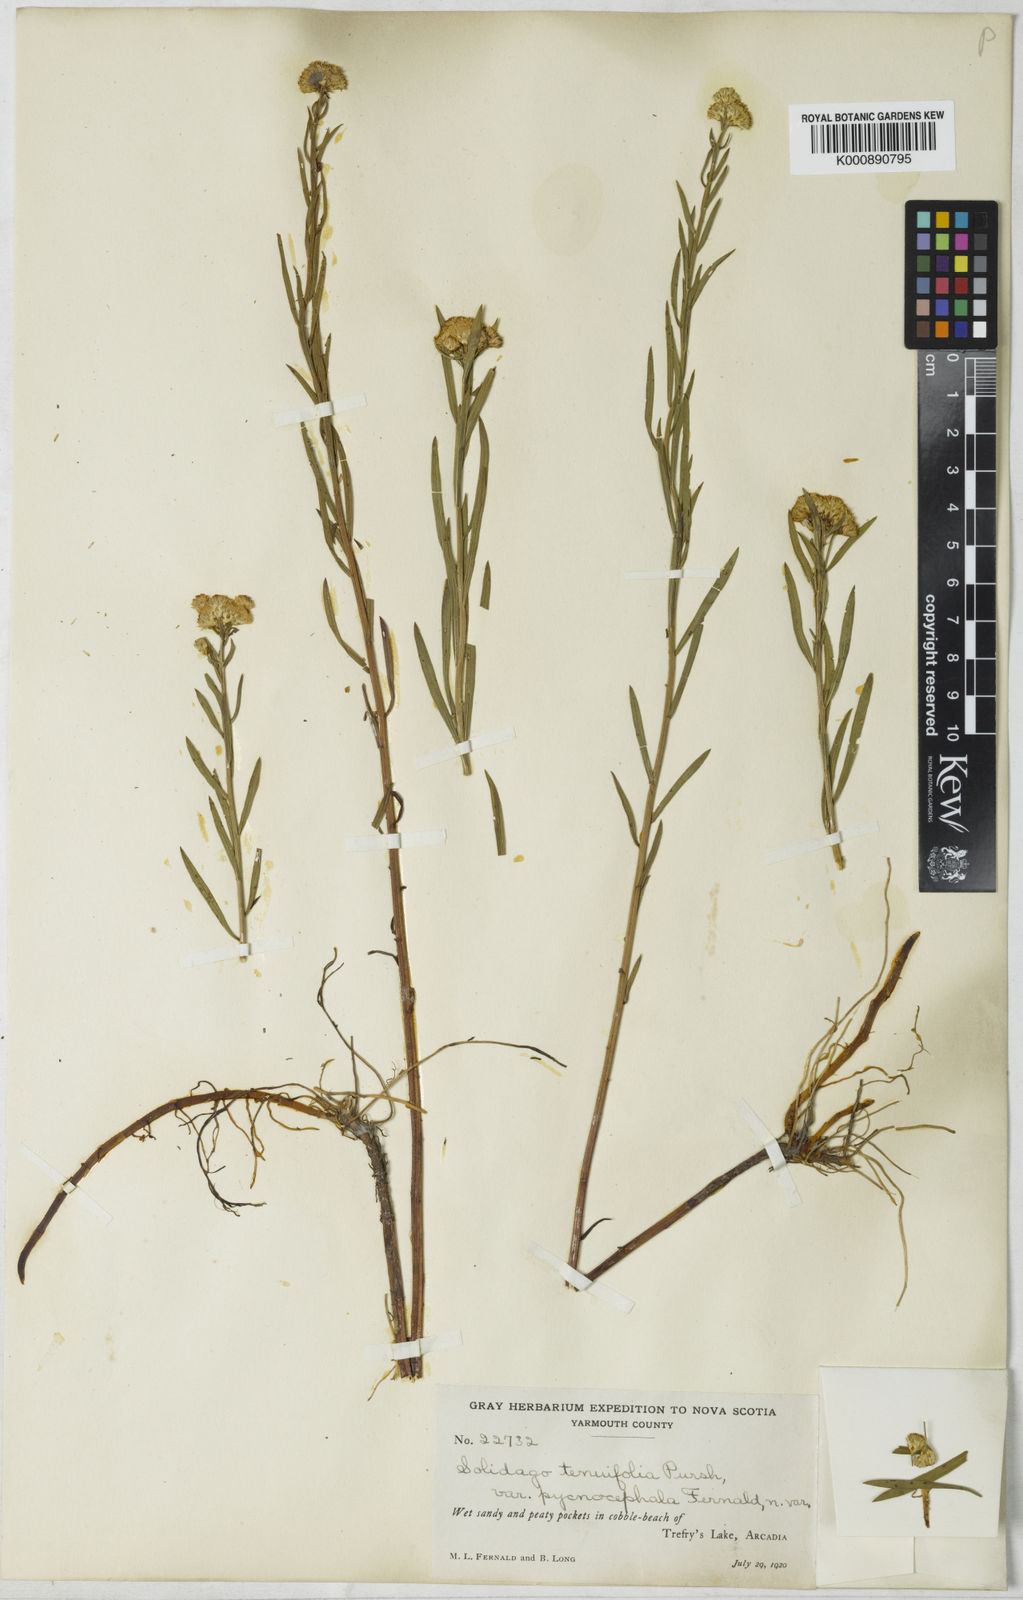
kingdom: Plantae
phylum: Tracheophyta
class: Magnoliopsida
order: Asterales
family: Asteraceae
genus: Euthamia
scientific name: Euthamia caroliniana
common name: Coastal plain goldentop
